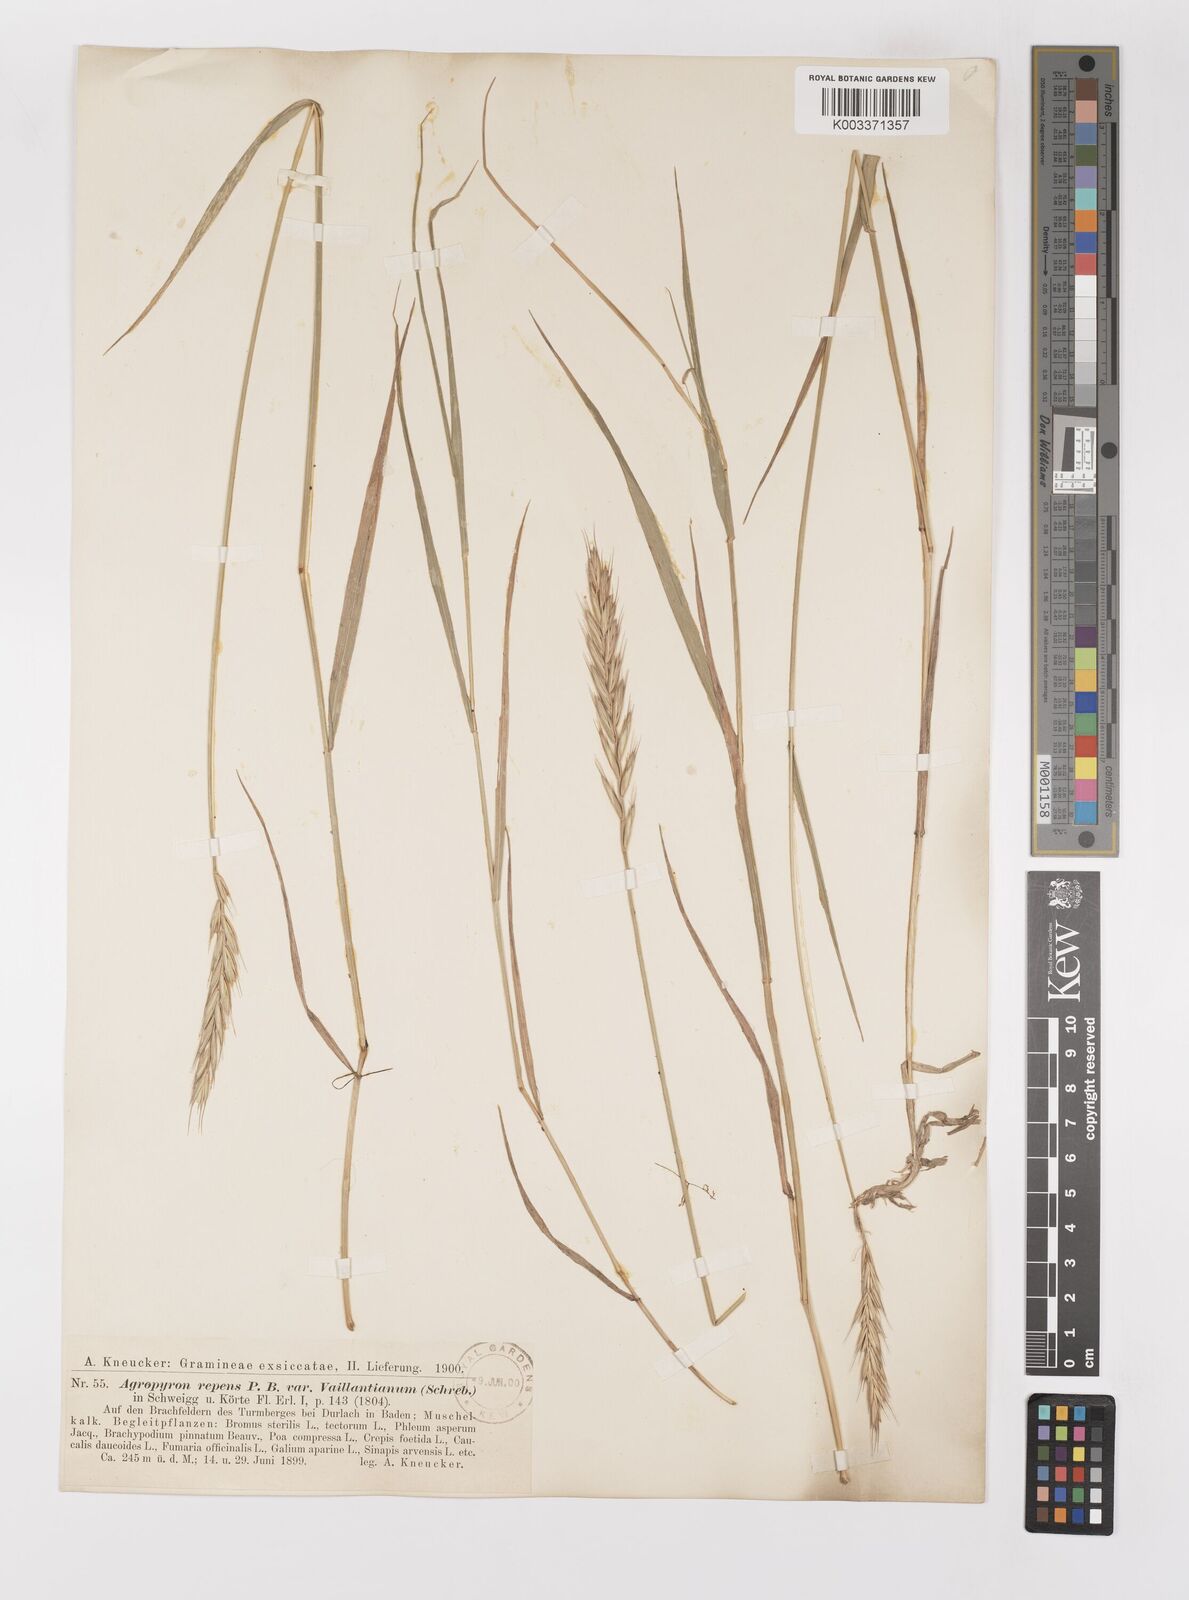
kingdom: Plantae
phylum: Tracheophyta
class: Liliopsida
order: Poales
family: Poaceae
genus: Elymus
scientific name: Elymus repens
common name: Quackgrass
